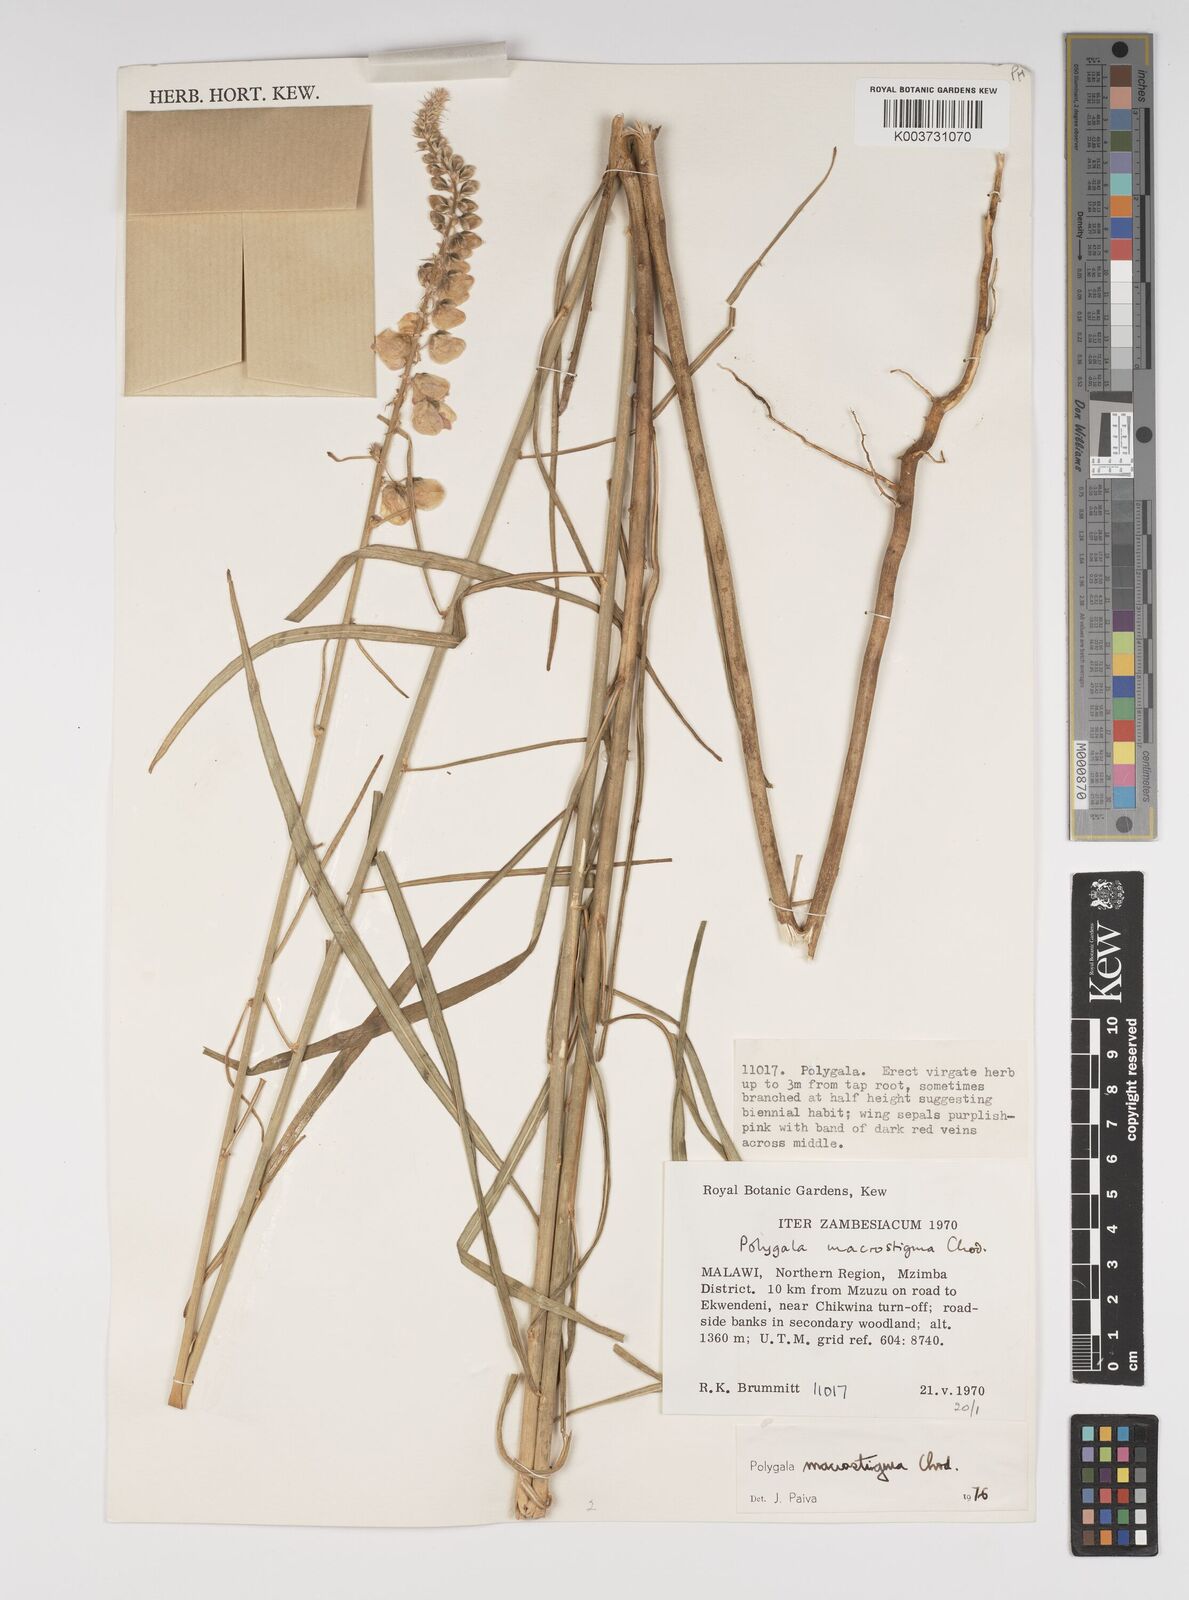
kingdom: Plantae
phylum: Tracheophyta
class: Magnoliopsida
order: Fabales
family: Polygalaceae
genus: Polygala
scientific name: Polygala macrostigma
